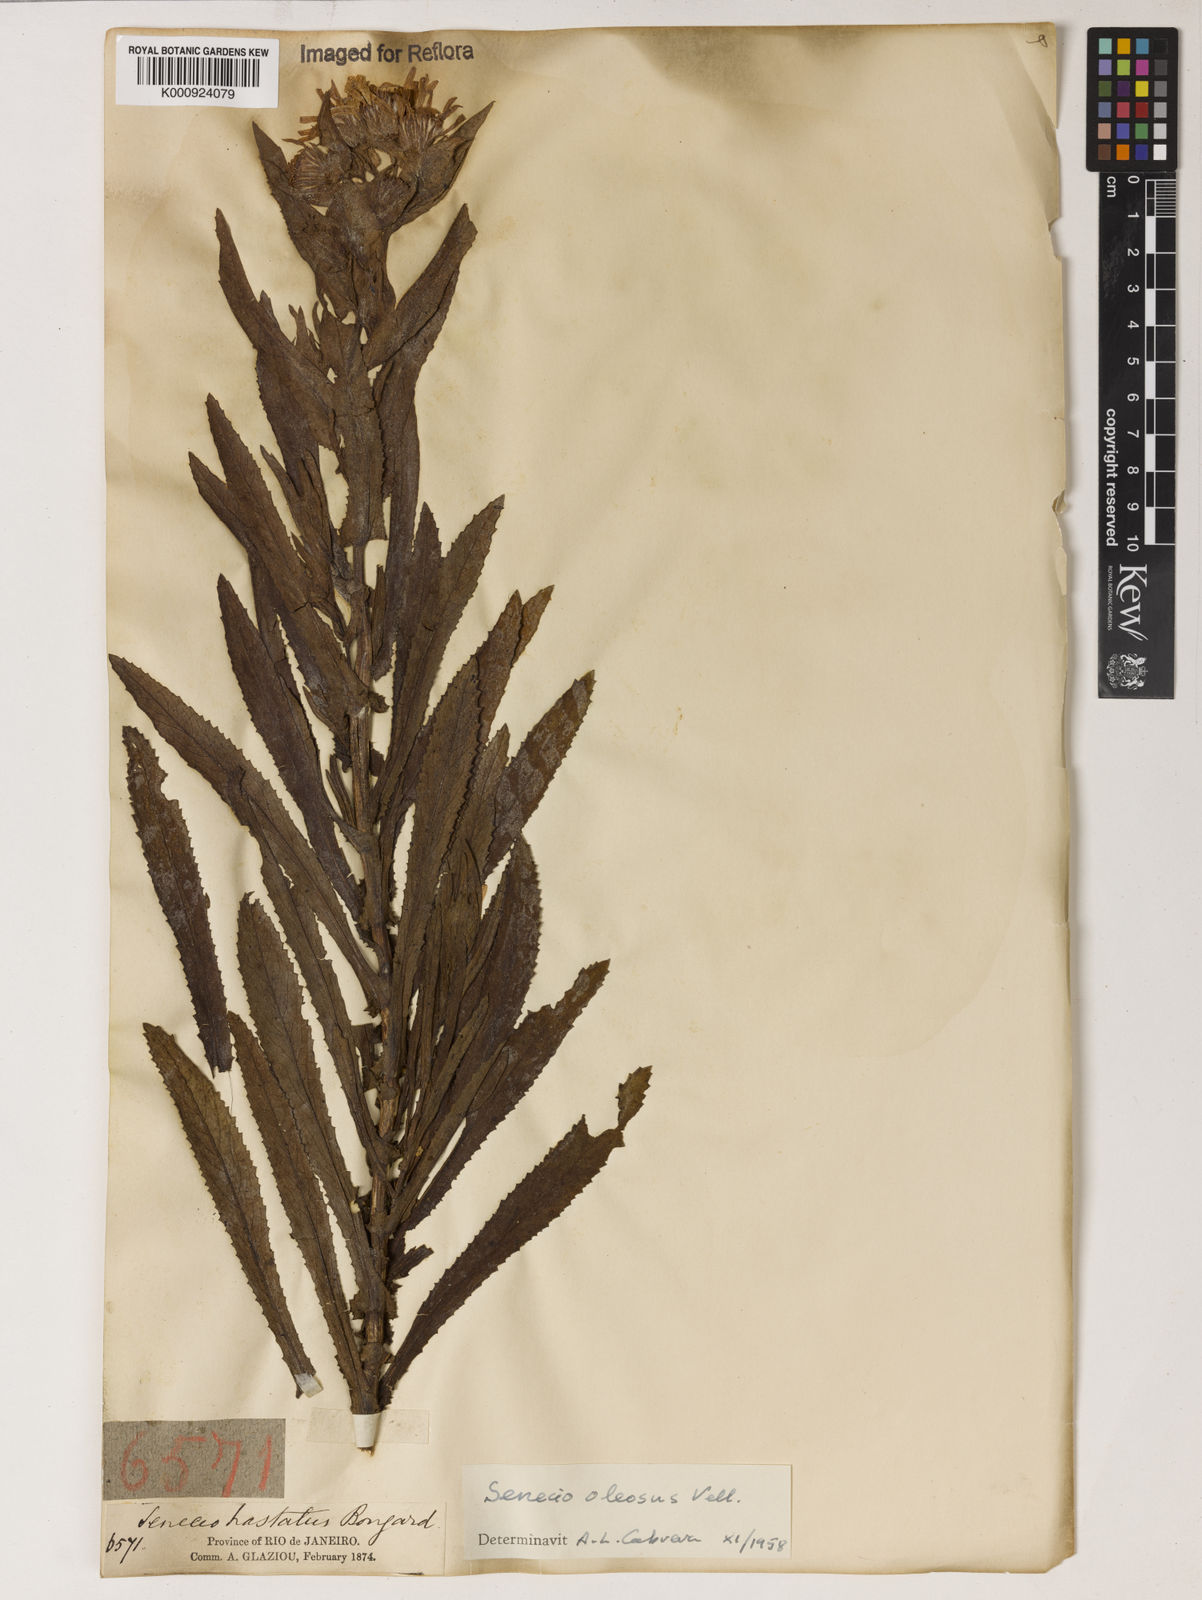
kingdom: Plantae
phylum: Tracheophyta
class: Magnoliopsida
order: Asterales
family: Asteraceae
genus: Senecio
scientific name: Senecio oleosus
